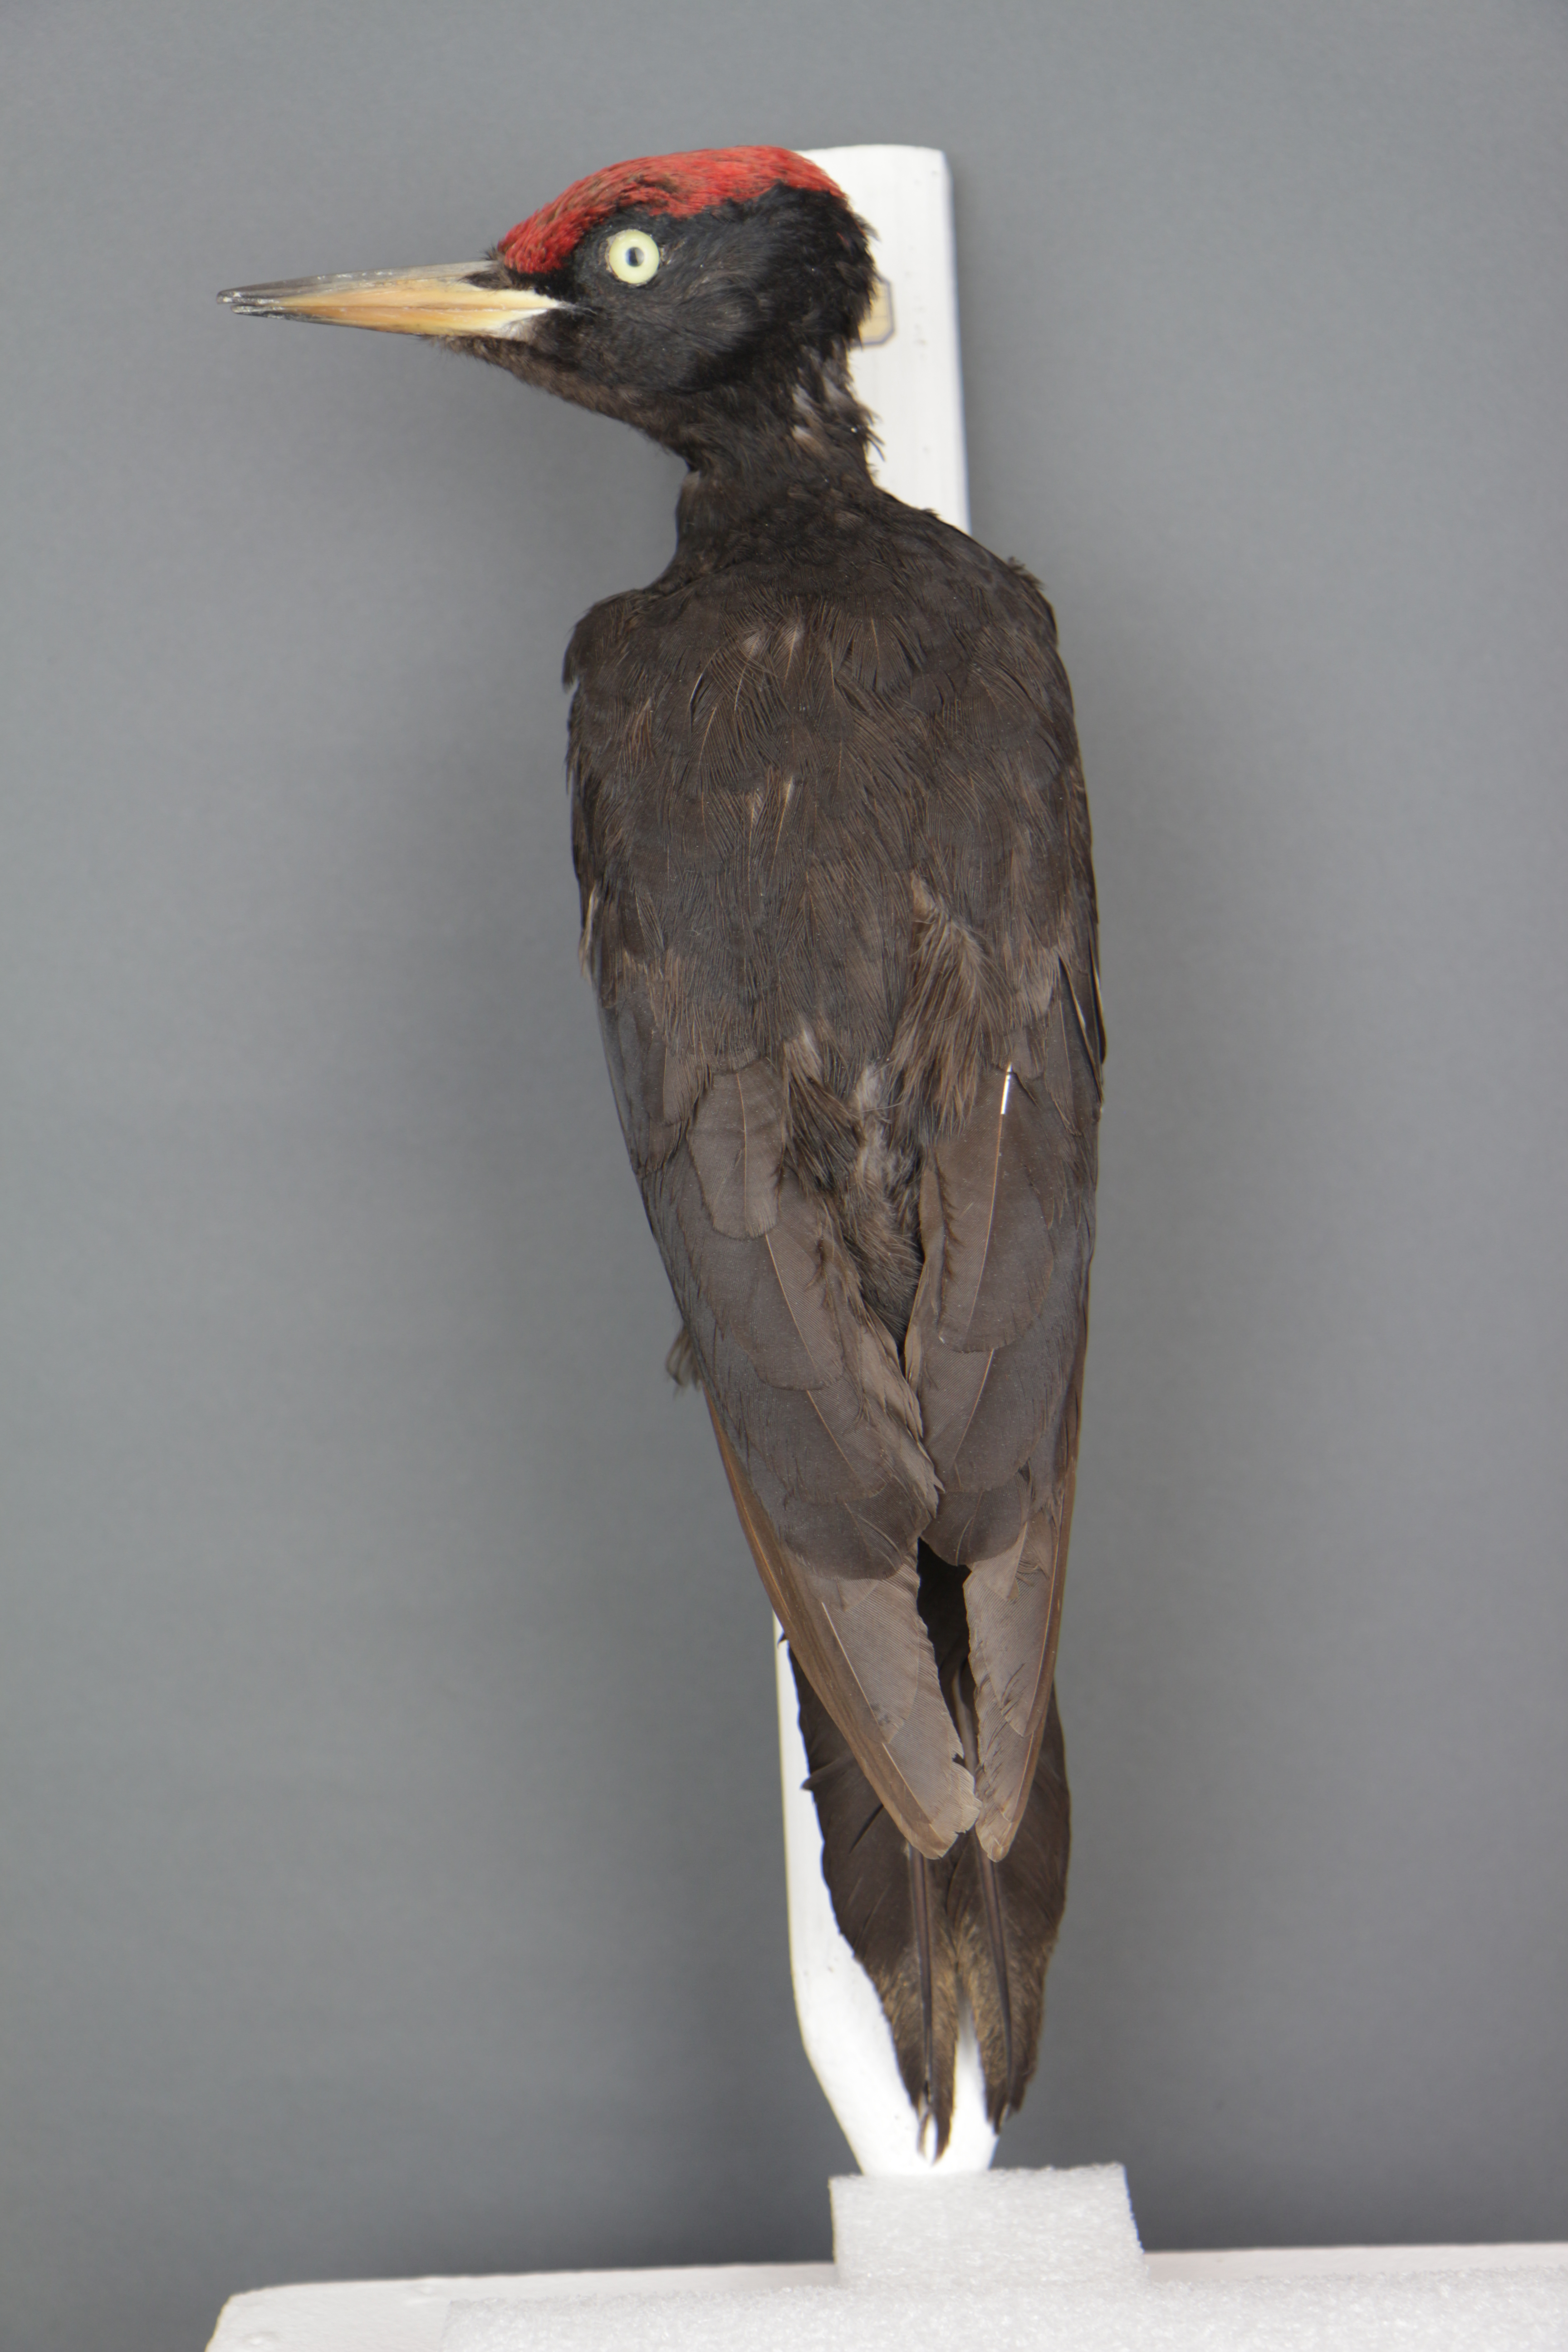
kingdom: Animalia
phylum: Chordata
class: Aves
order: Piciformes
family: Picidae
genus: Dryocopus
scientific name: Dryocopus martius
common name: Black woodpecker
